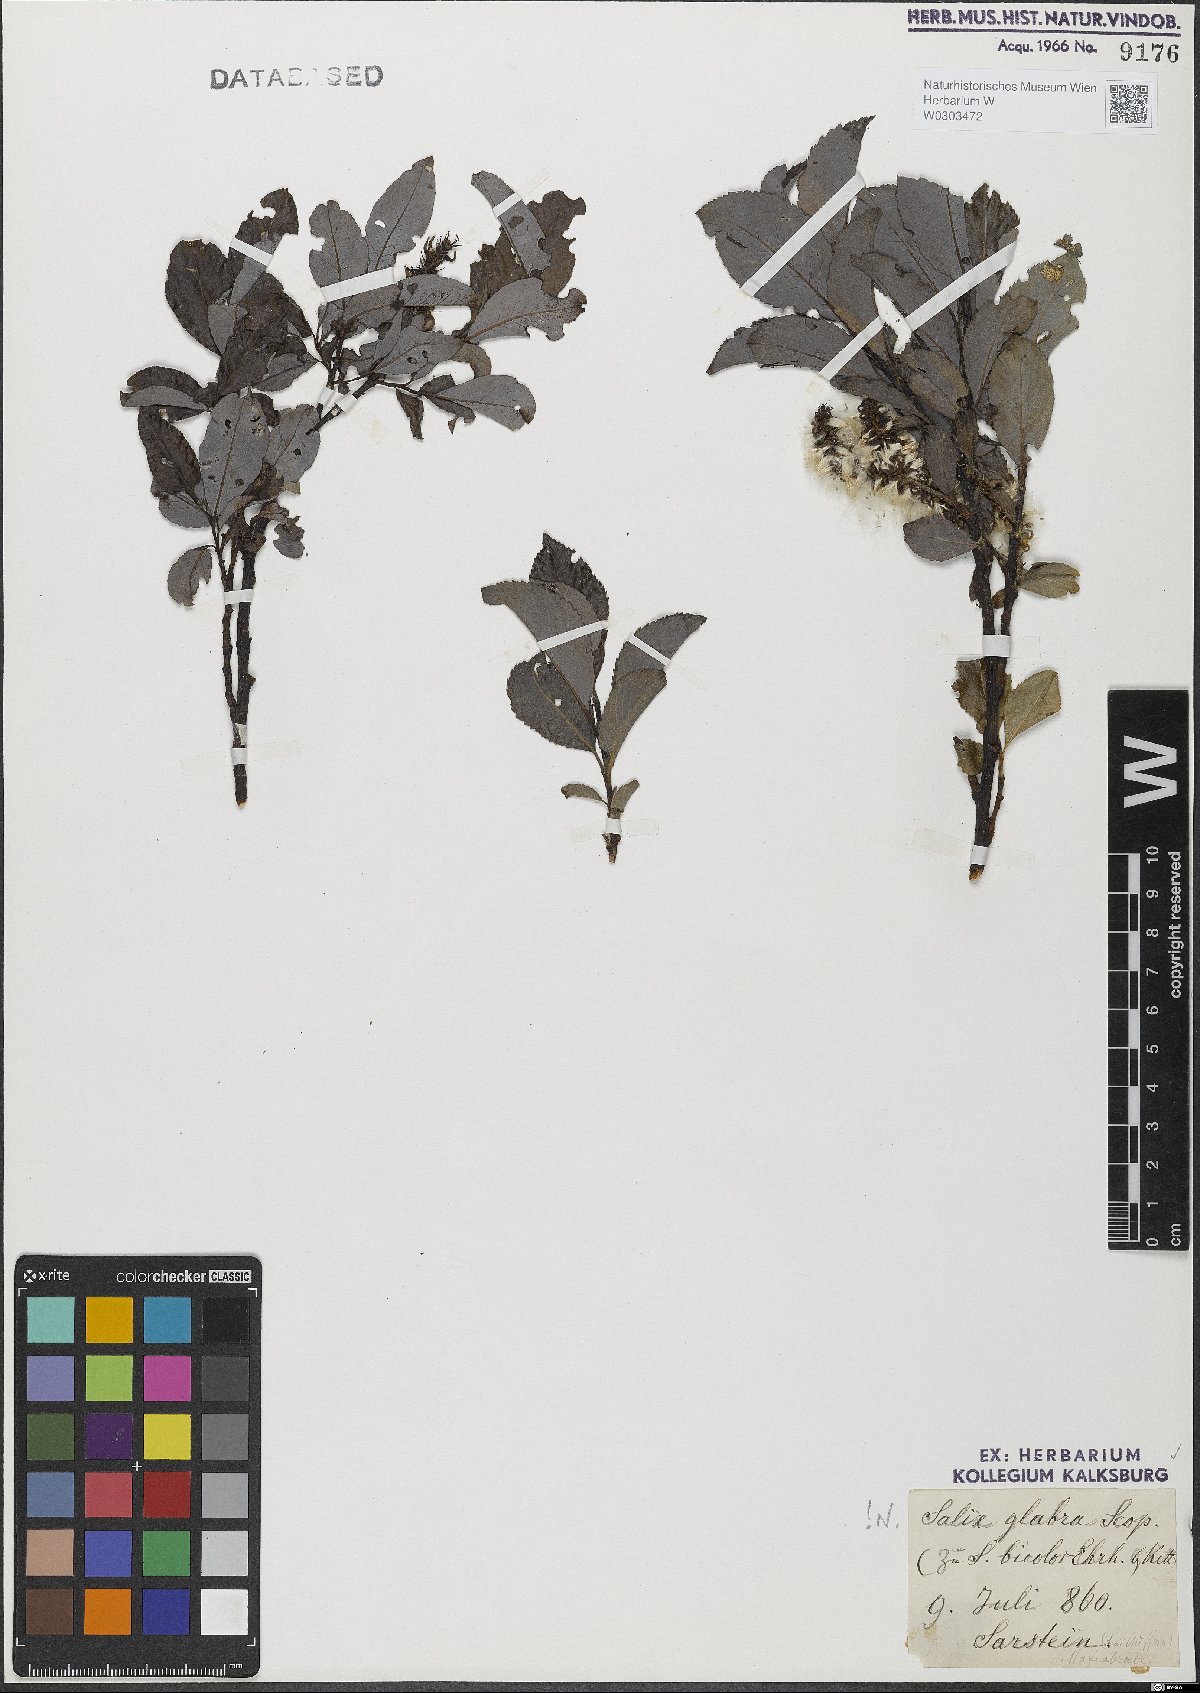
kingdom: Plantae
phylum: Tracheophyta
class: Magnoliopsida
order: Malpighiales
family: Salicaceae
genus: Salix
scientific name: Salix glabra
